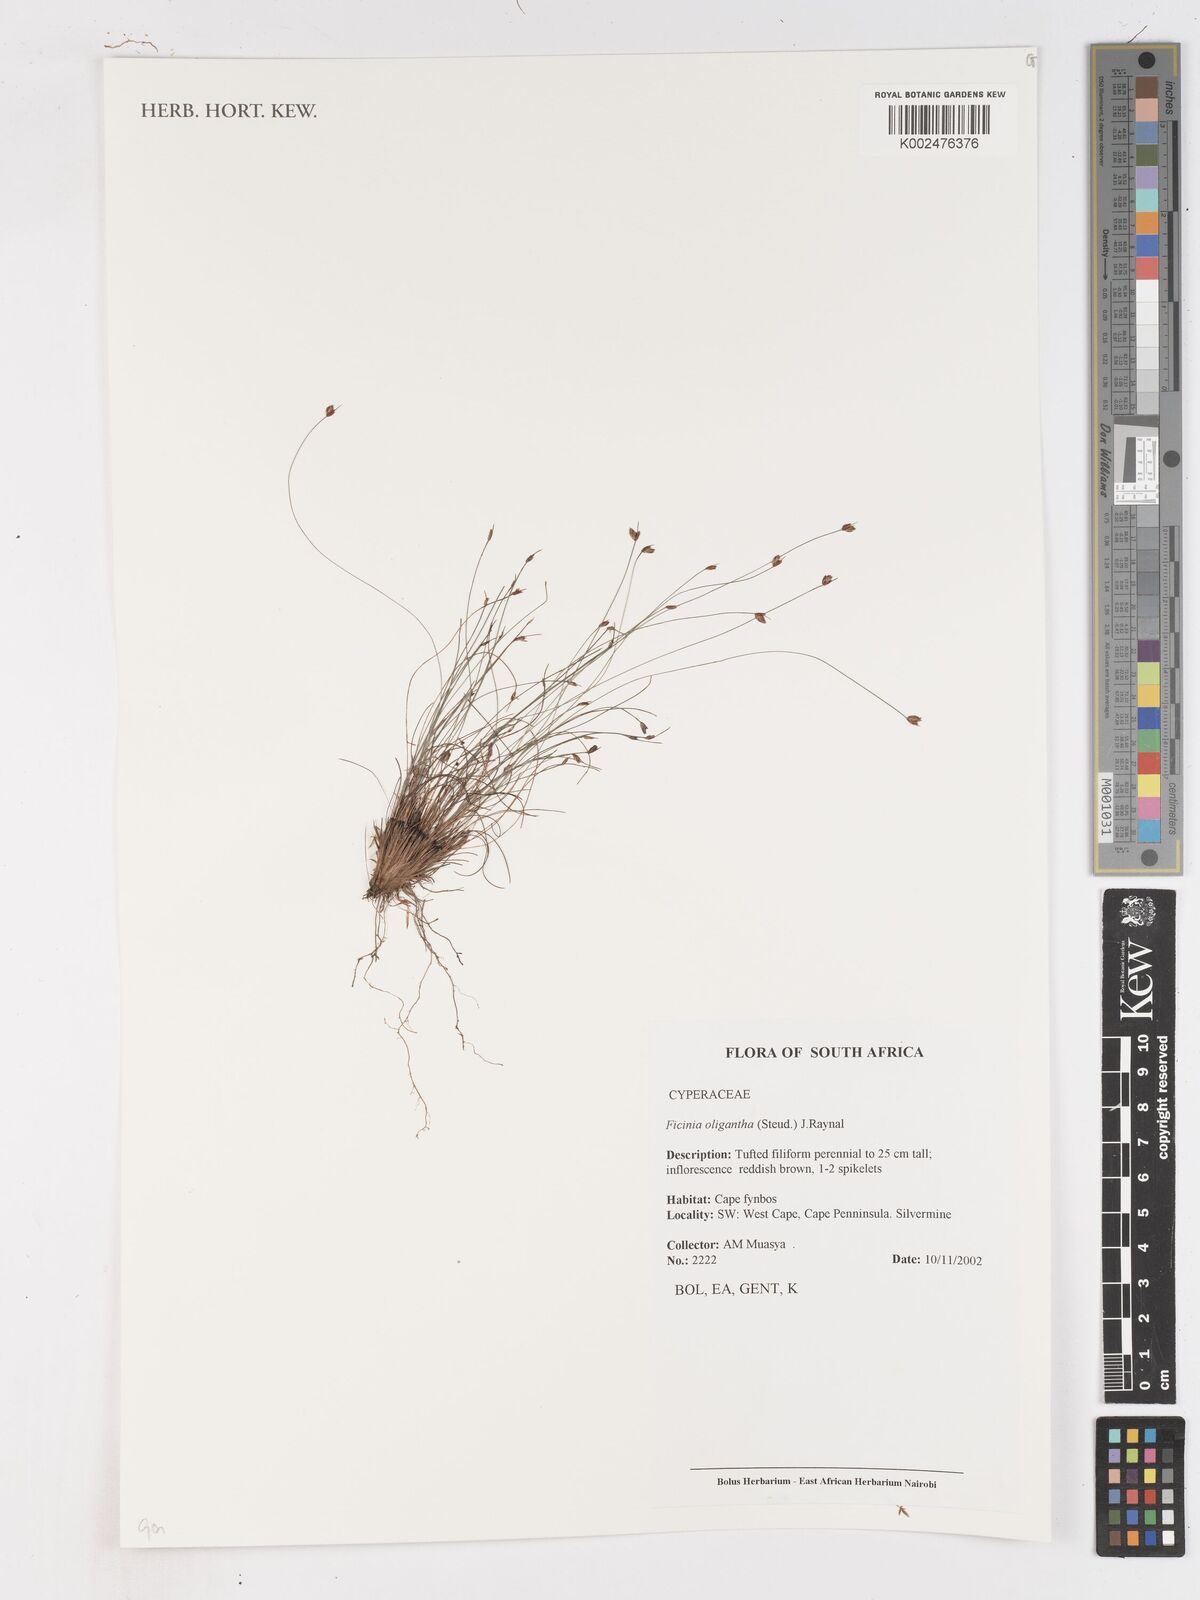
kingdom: Plantae
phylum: Tracheophyta
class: Liliopsida
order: Poales
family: Cyperaceae
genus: Ficinia
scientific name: Ficinia oligantha
